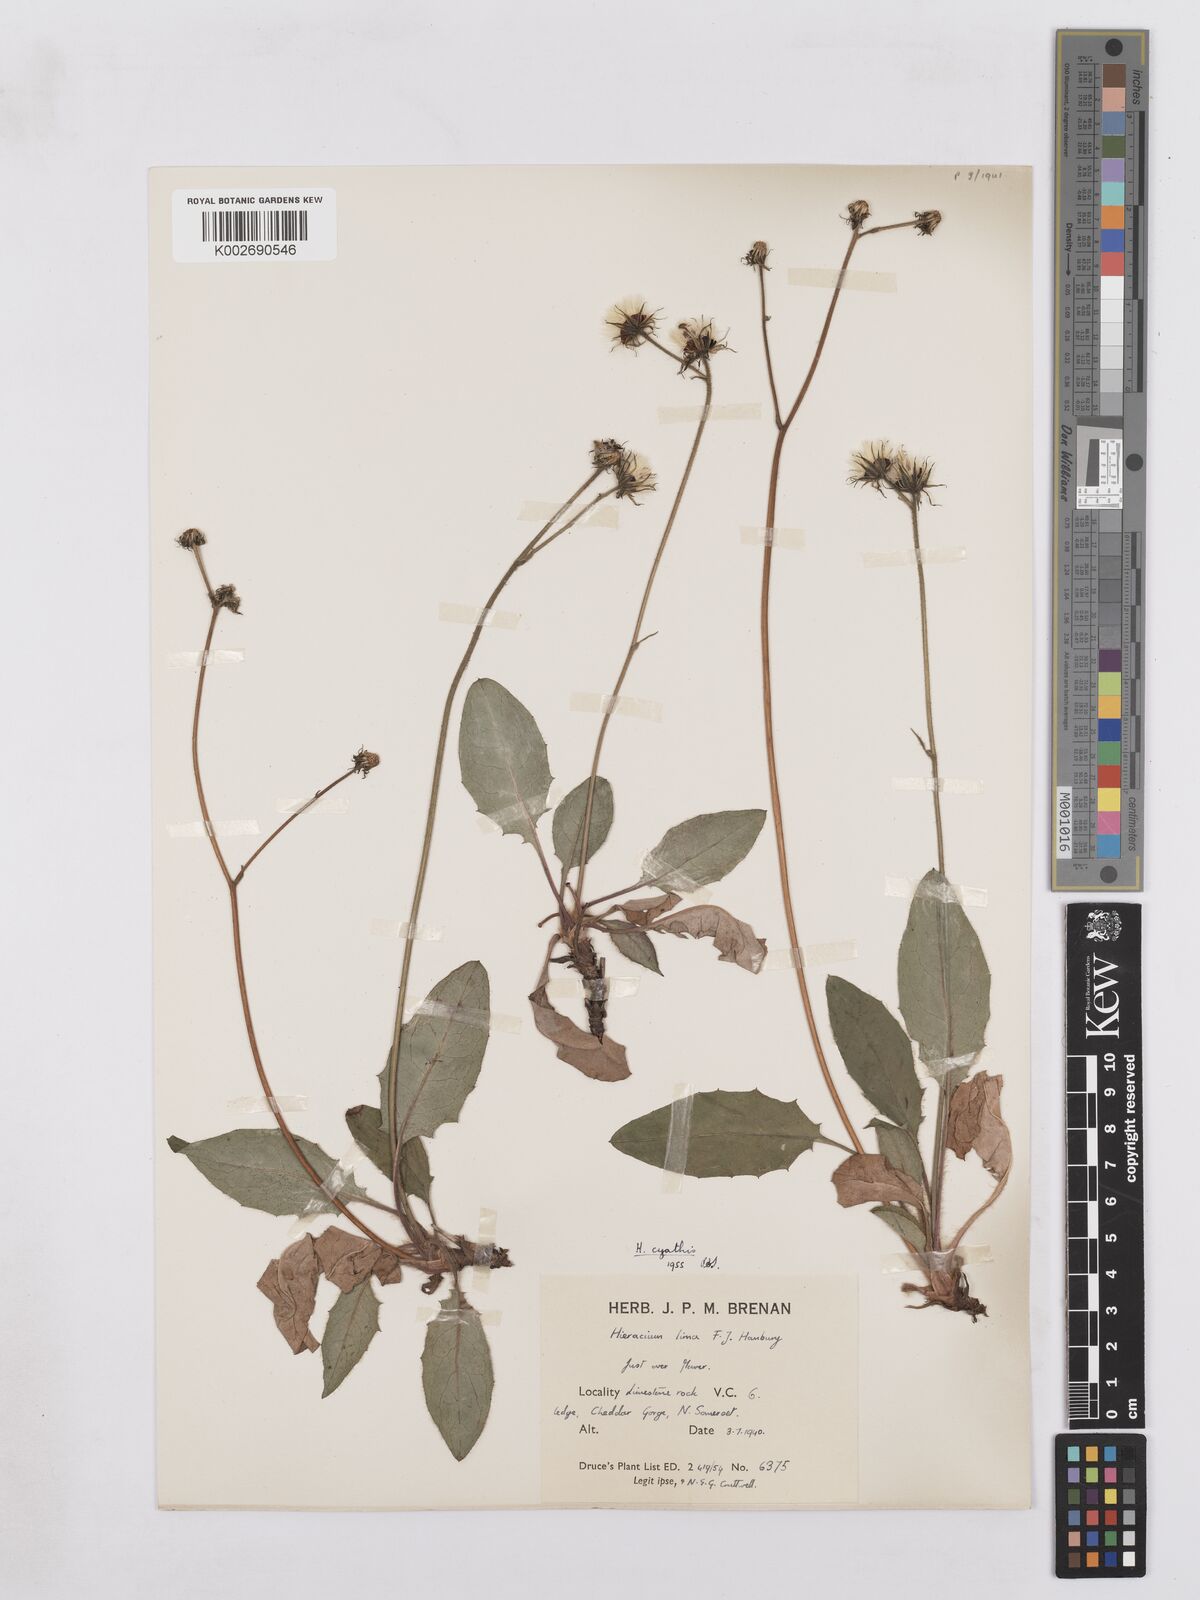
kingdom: Plantae
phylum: Tracheophyta
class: Magnoliopsida
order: Asterales
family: Asteraceae
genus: Hieracium
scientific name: Hieracium hypochoeroides
